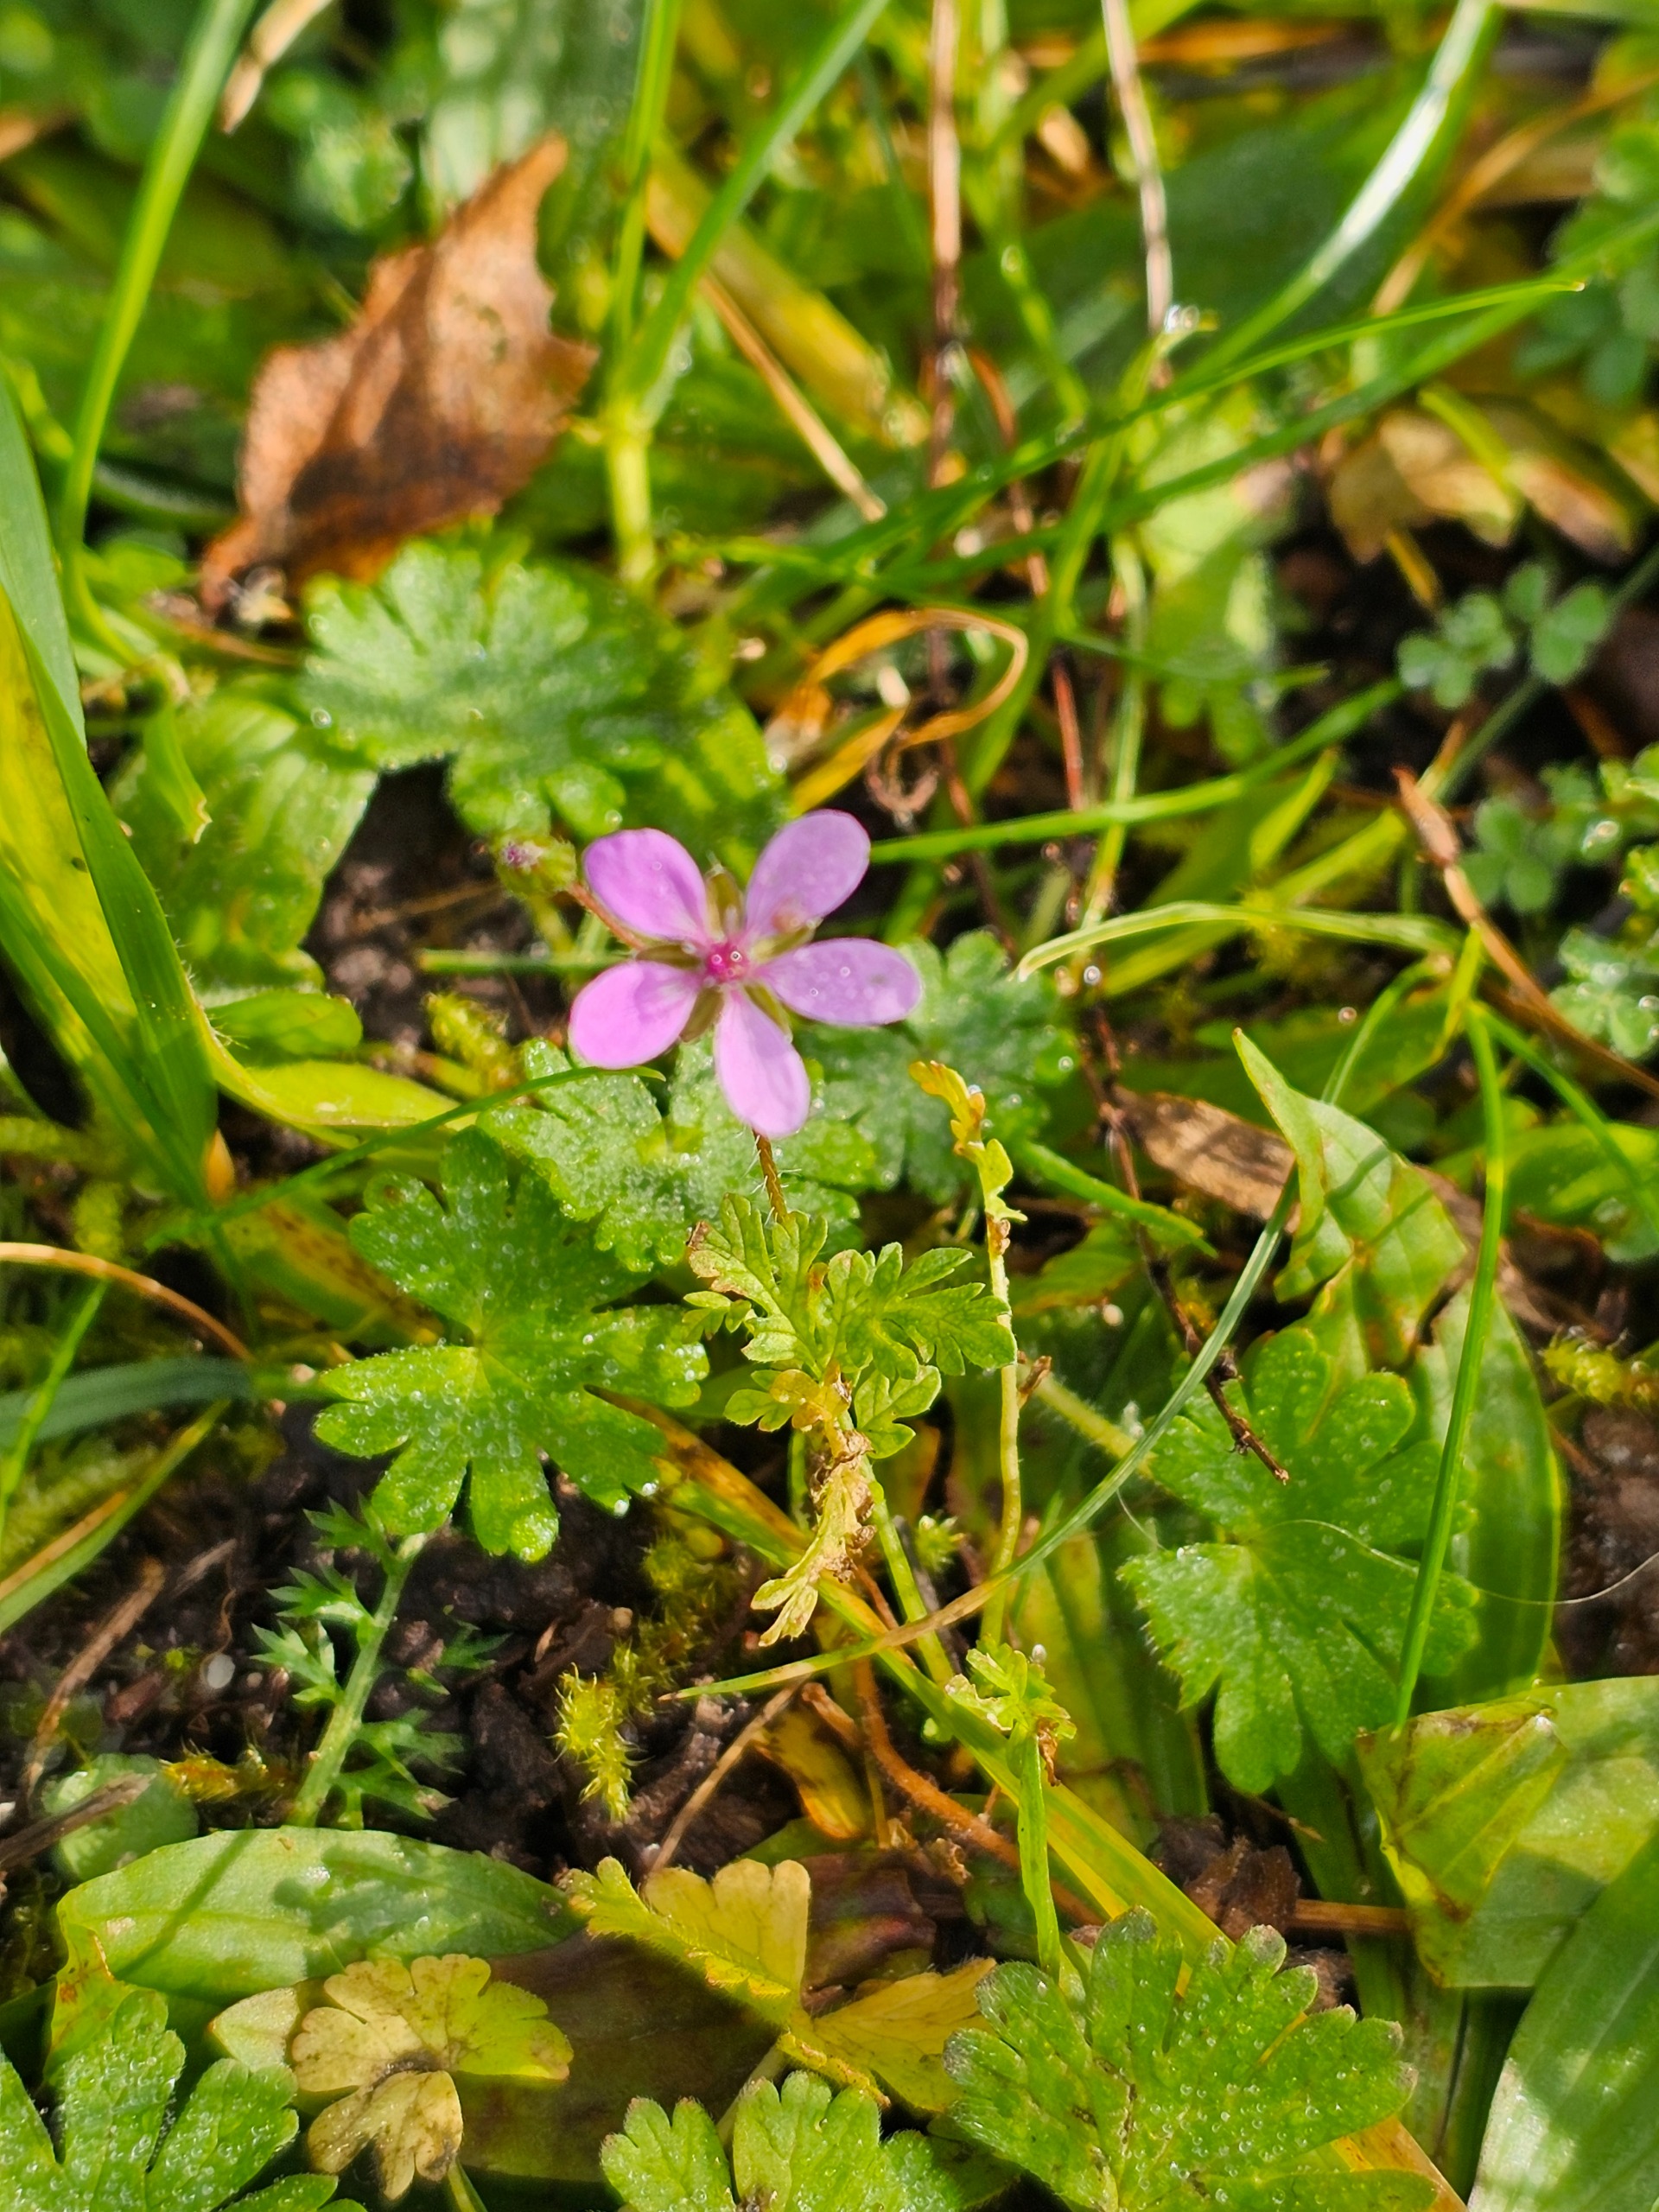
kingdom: Plantae
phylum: Tracheophyta
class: Magnoliopsida
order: Geraniales
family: Geraniaceae
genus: Erodium
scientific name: Erodium cicutarium
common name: Hejrenæb
